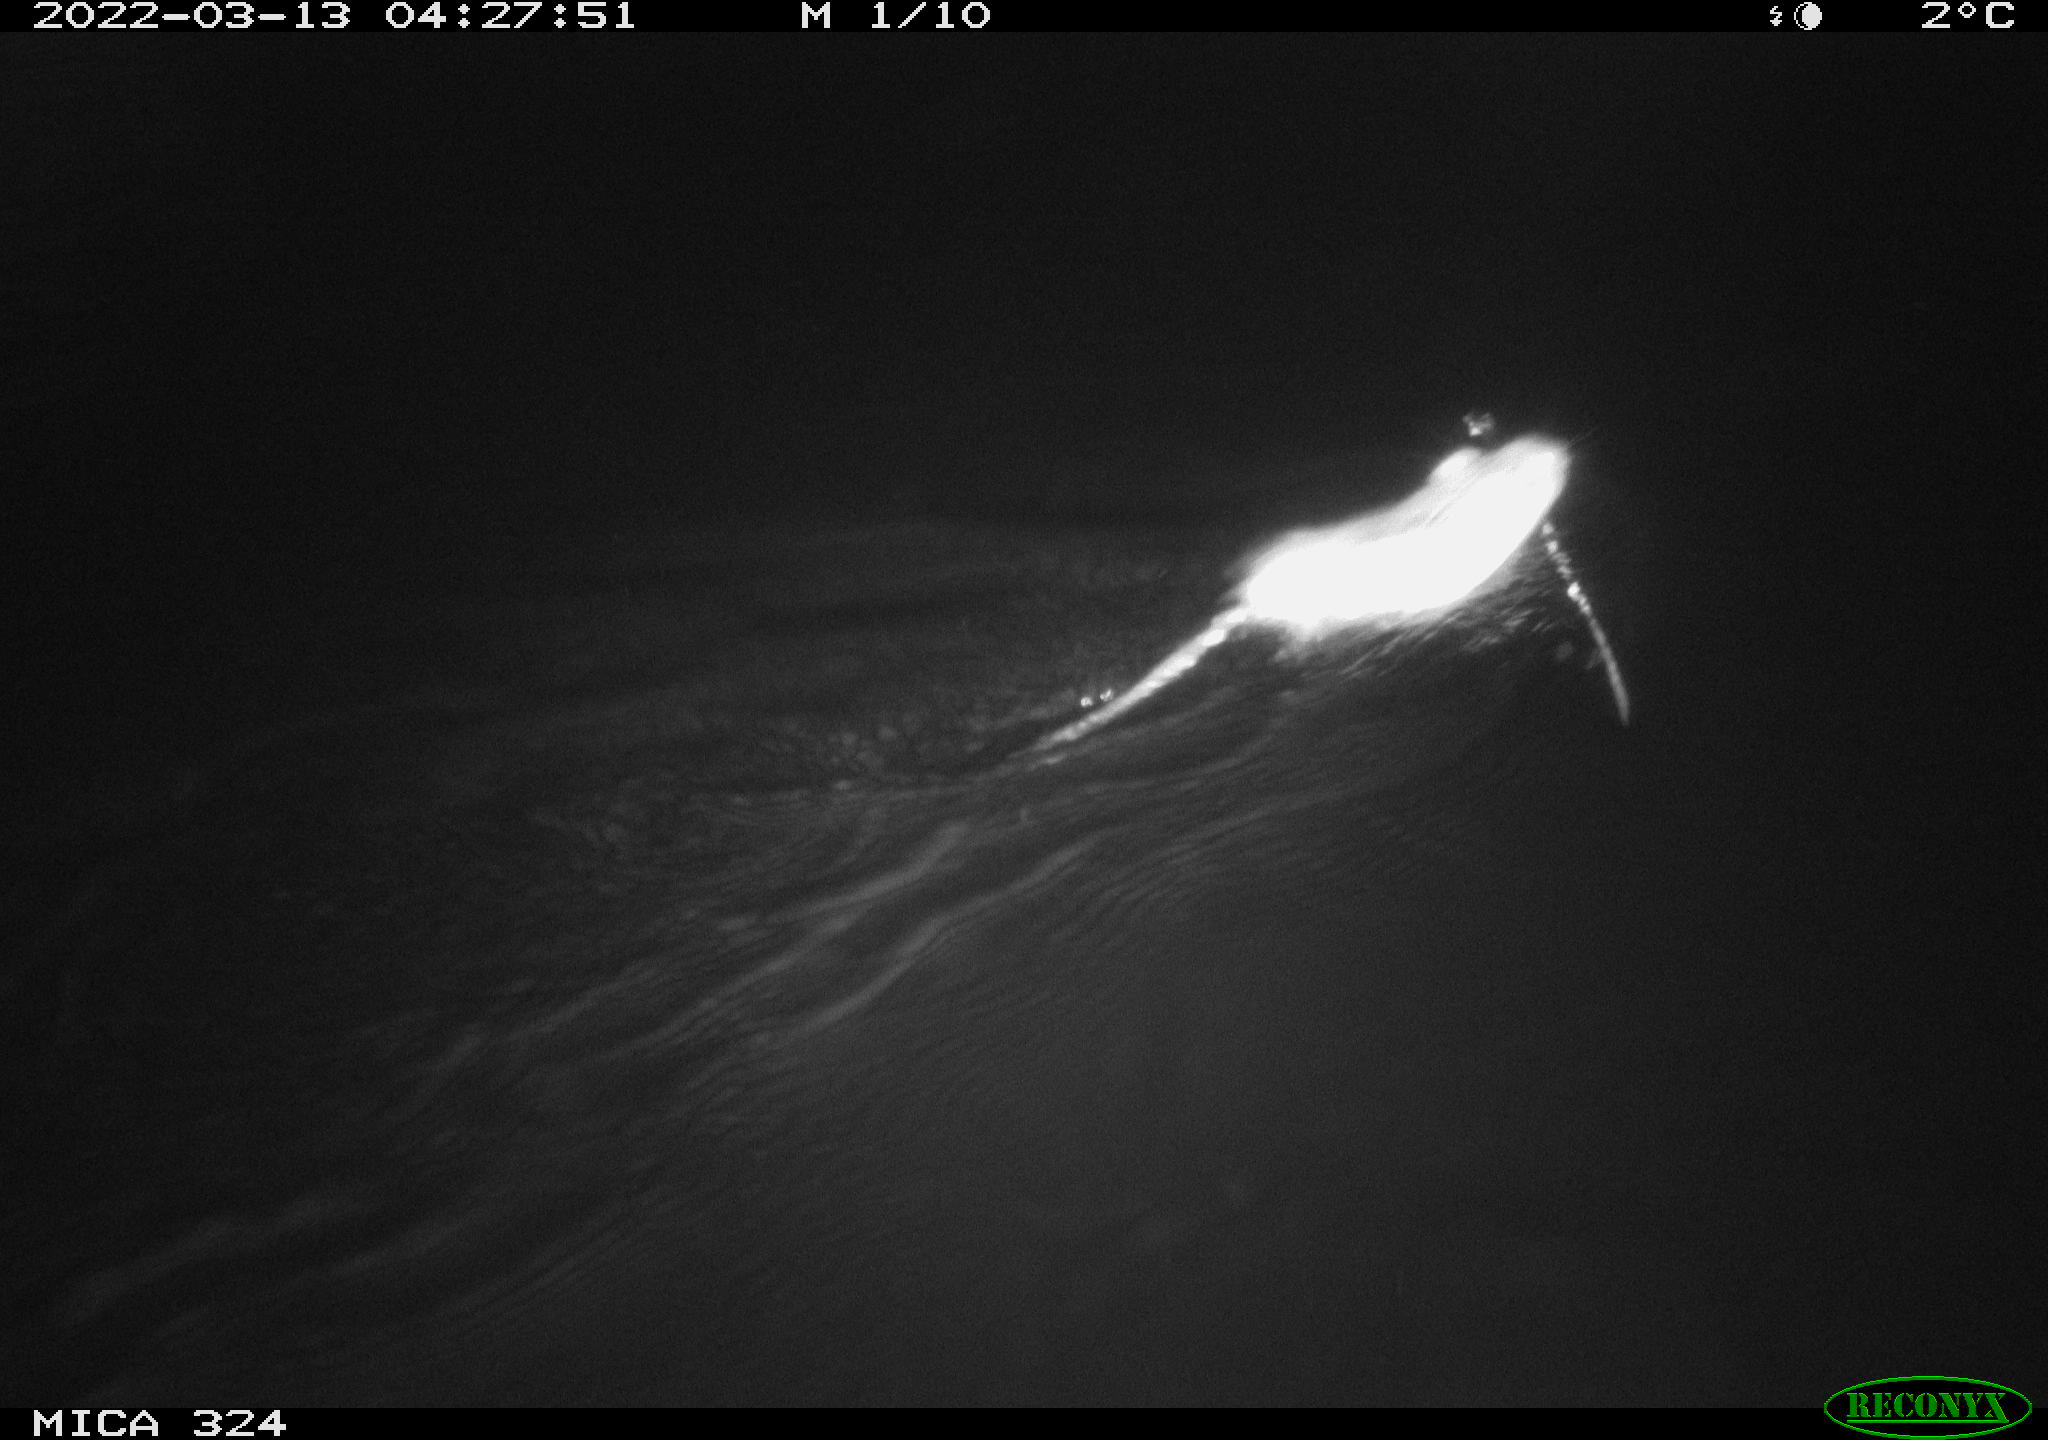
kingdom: Animalia
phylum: Chordata
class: Mammalia
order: Rodentia
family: Cricetidae
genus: Ondatra
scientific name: Ondatra zibethicus
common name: Muskrat
